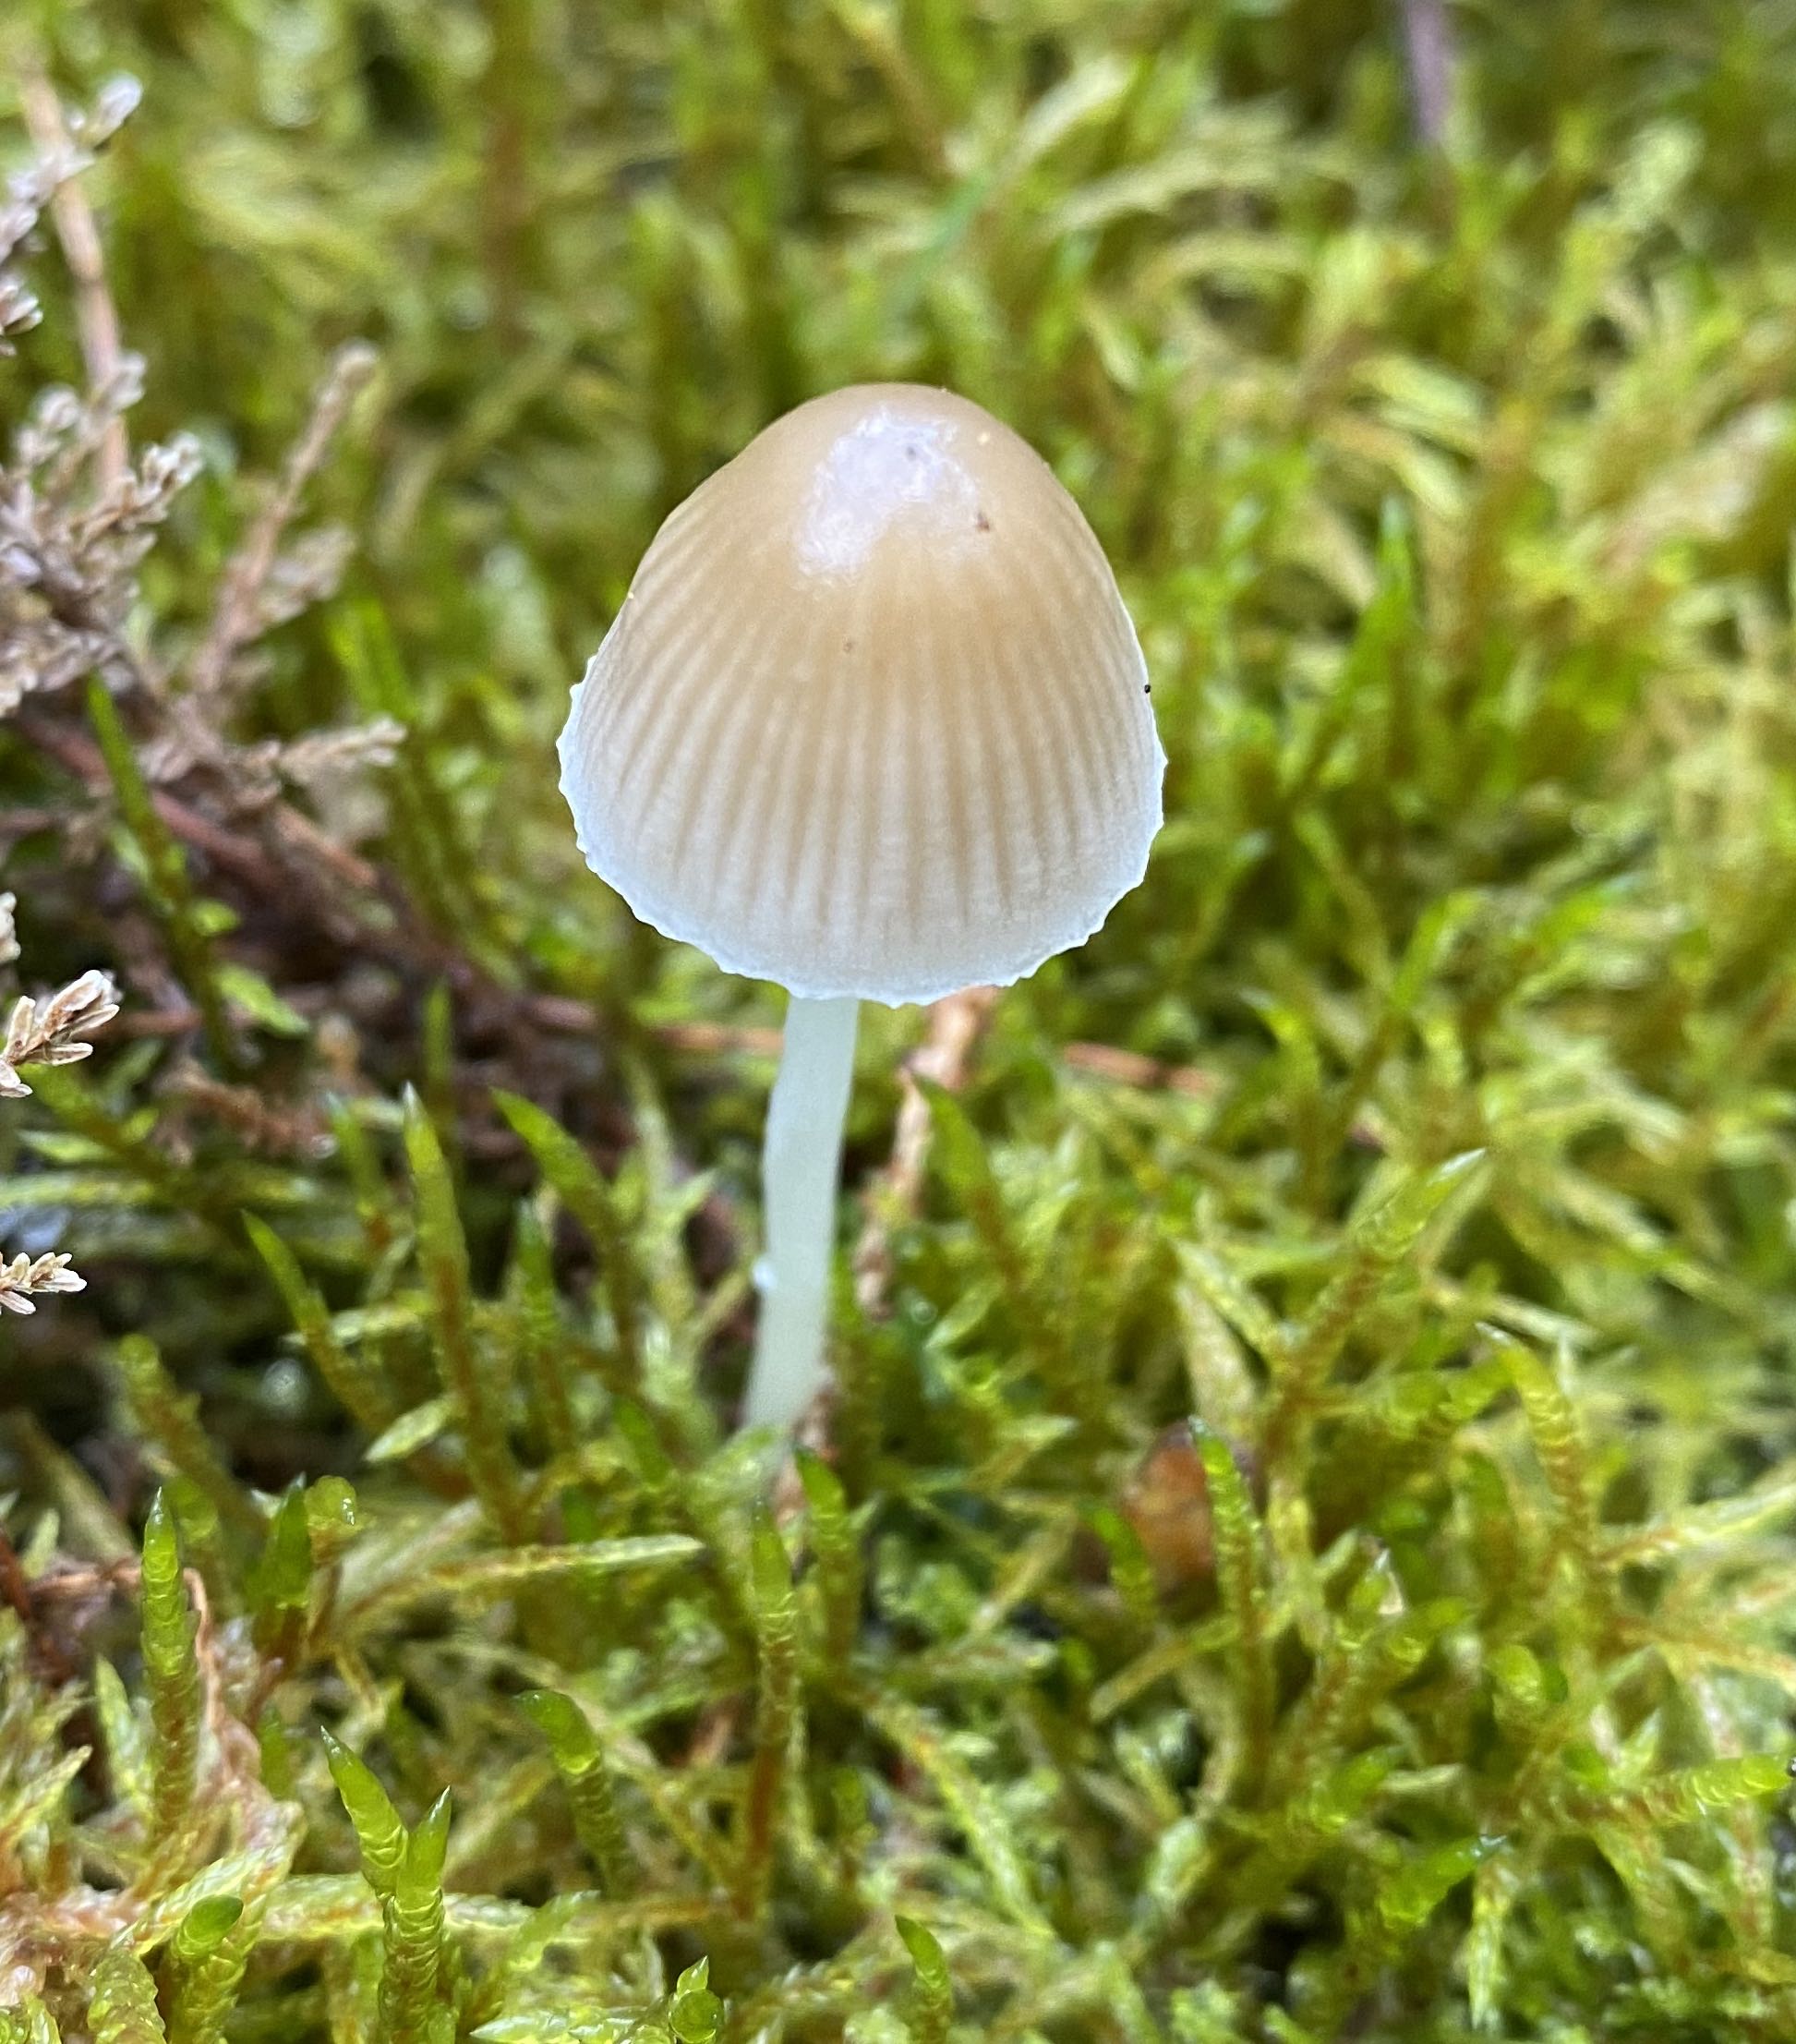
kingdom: Fungi
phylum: Basidiomycota
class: Agaricomycetes
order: Agaricales
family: Mycenaceae
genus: Mycena
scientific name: Mycena epipterygia
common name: gulstokket huesvamp
